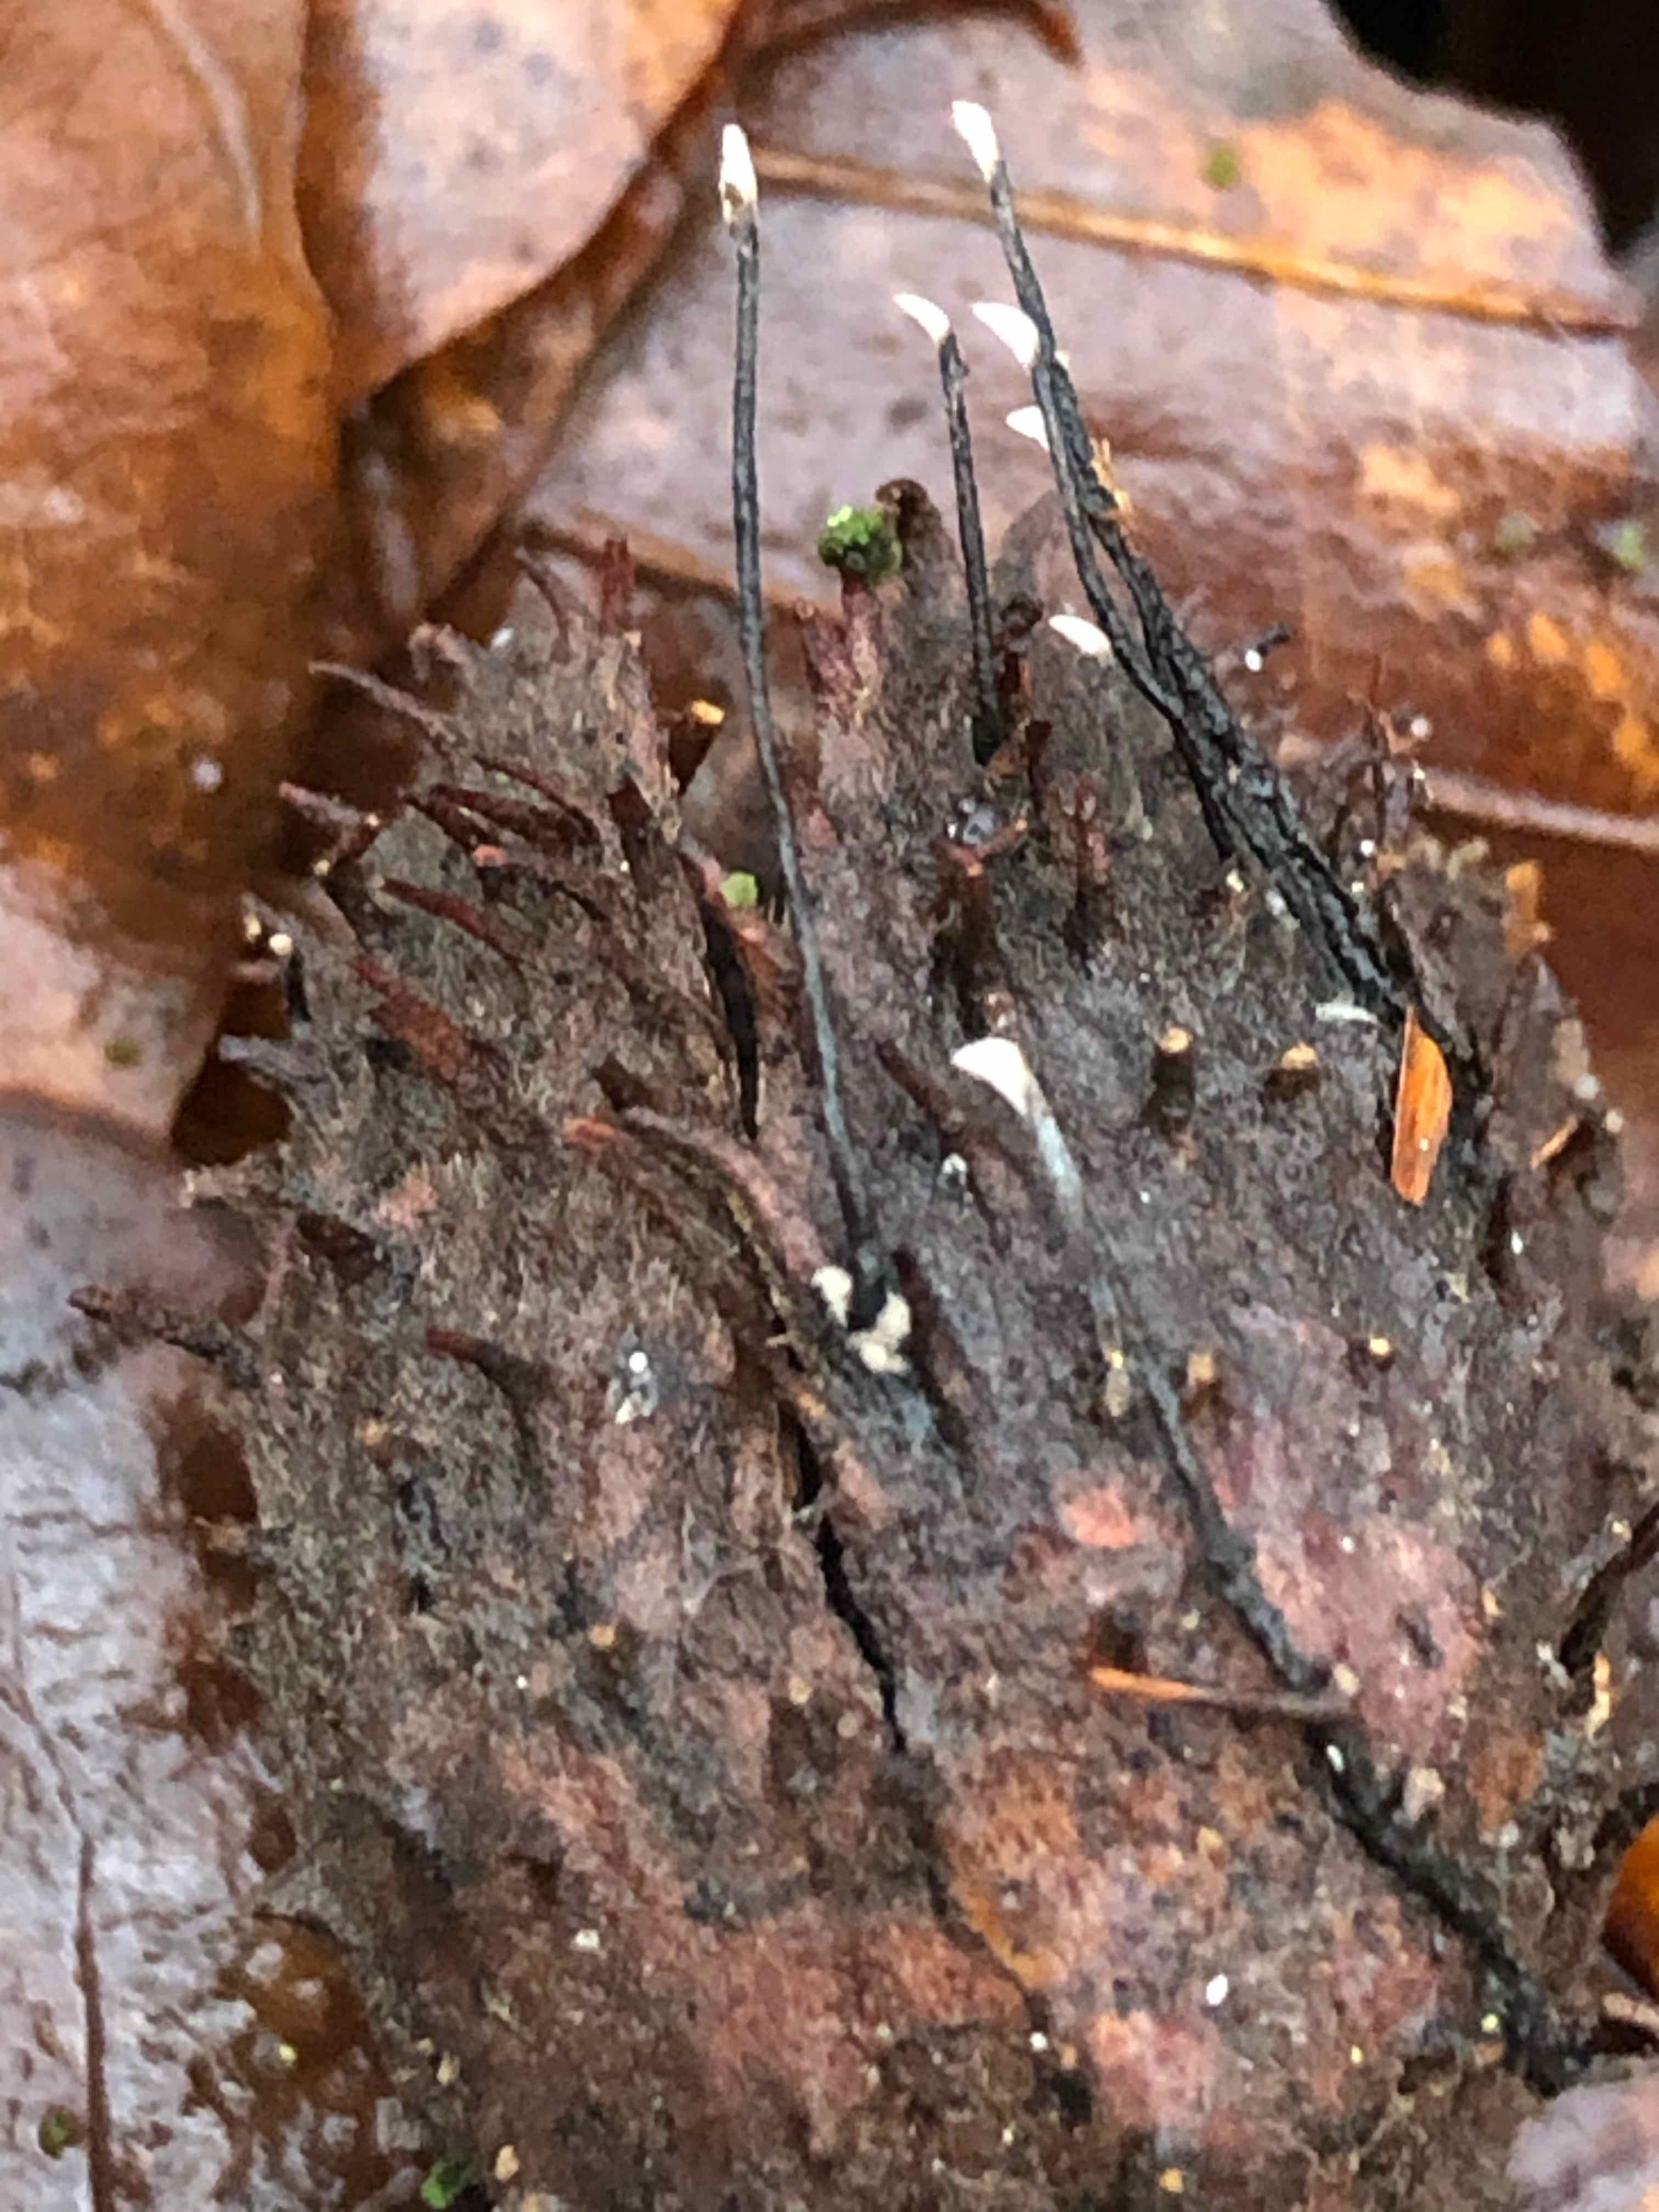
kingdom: Fungi
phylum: Ascomycota
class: Sordariomycetes
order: Xylariales
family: Xylariaceae
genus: Xylaria
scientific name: Xylaria carpophila
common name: bogskål-stødsvamp
